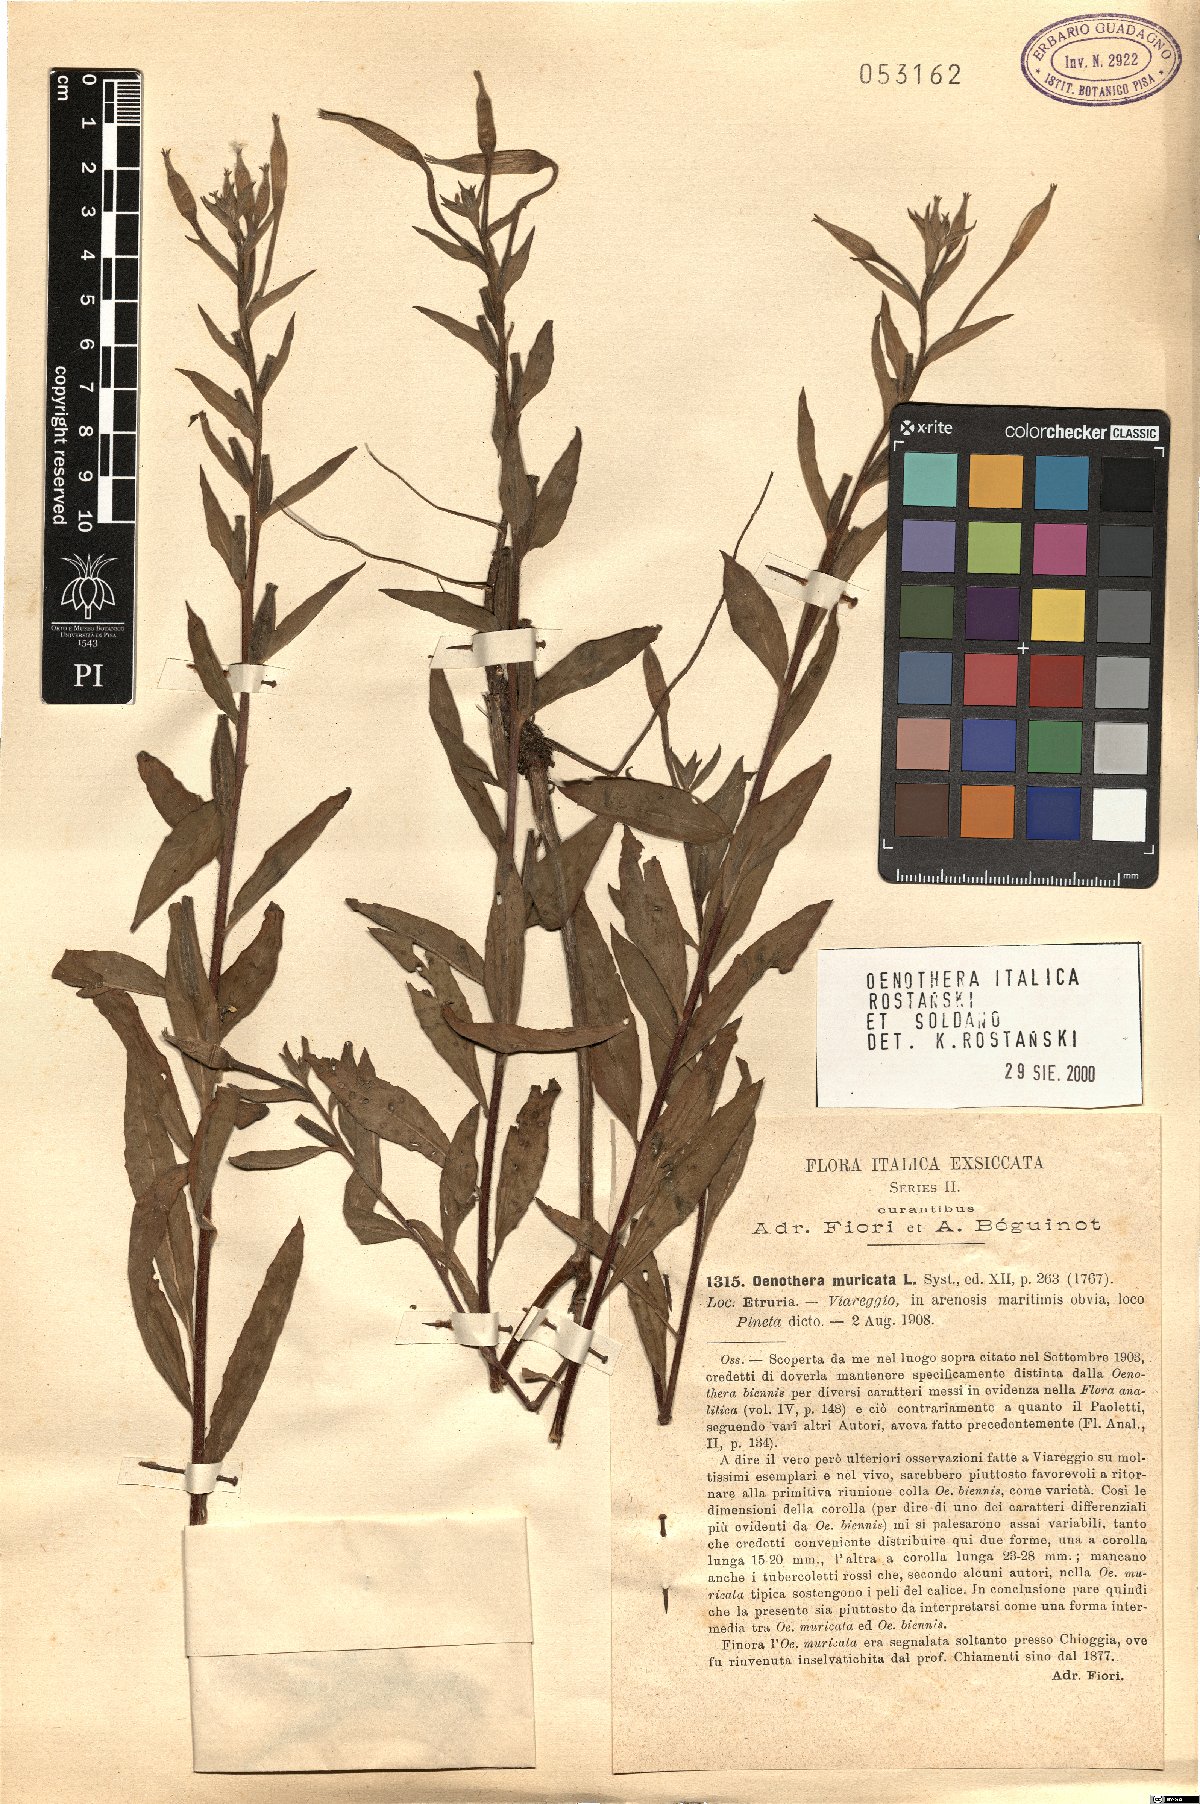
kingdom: Plantae
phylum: Tracheophyta
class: Magnoliopsida
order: Myrtales
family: Onagraceae
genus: Oenothera
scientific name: Oenothera italica
